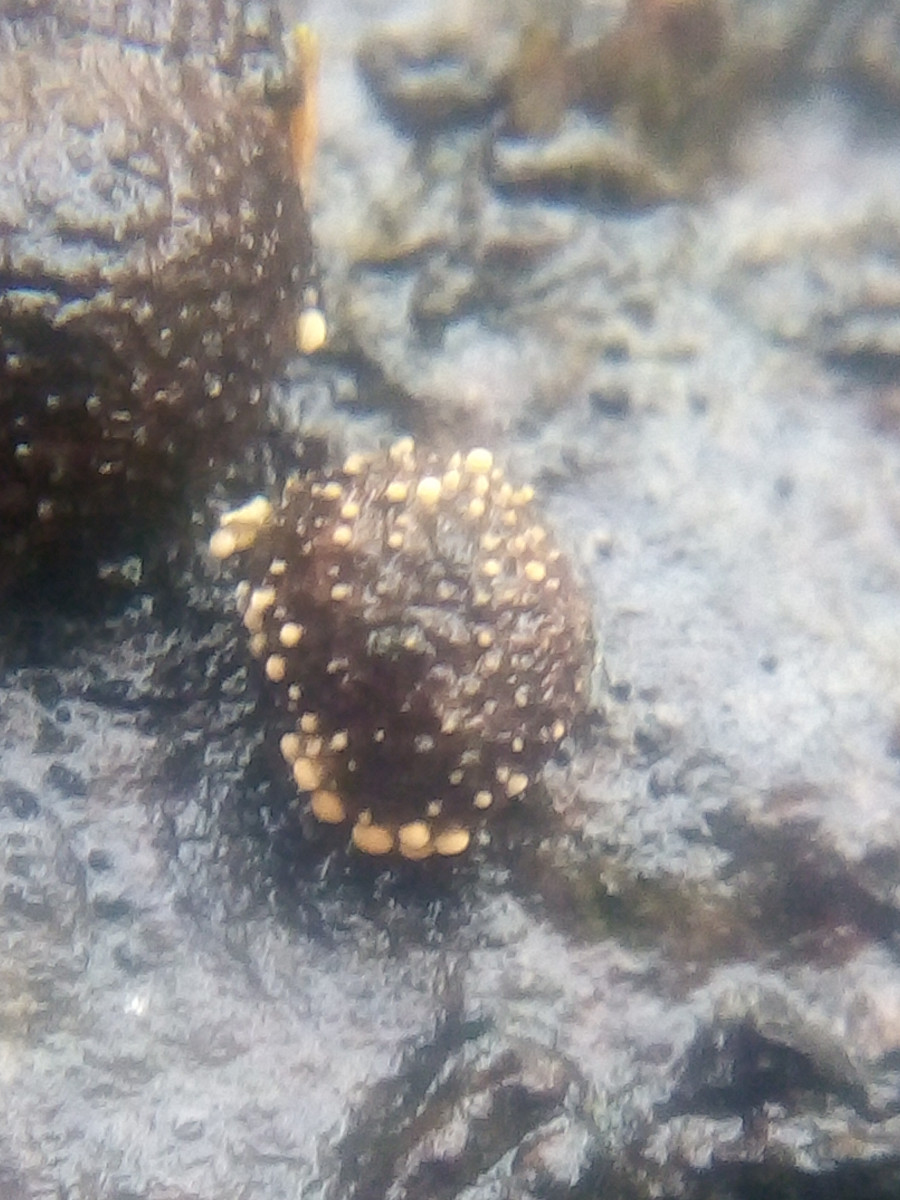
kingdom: Fungi
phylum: Ascomycota
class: Sordariomycetes
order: Hypocreales
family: Nectriaceae
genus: Cosmospora
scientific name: Cosmospora arxii
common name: kuljordbær-cinnobersvamp
